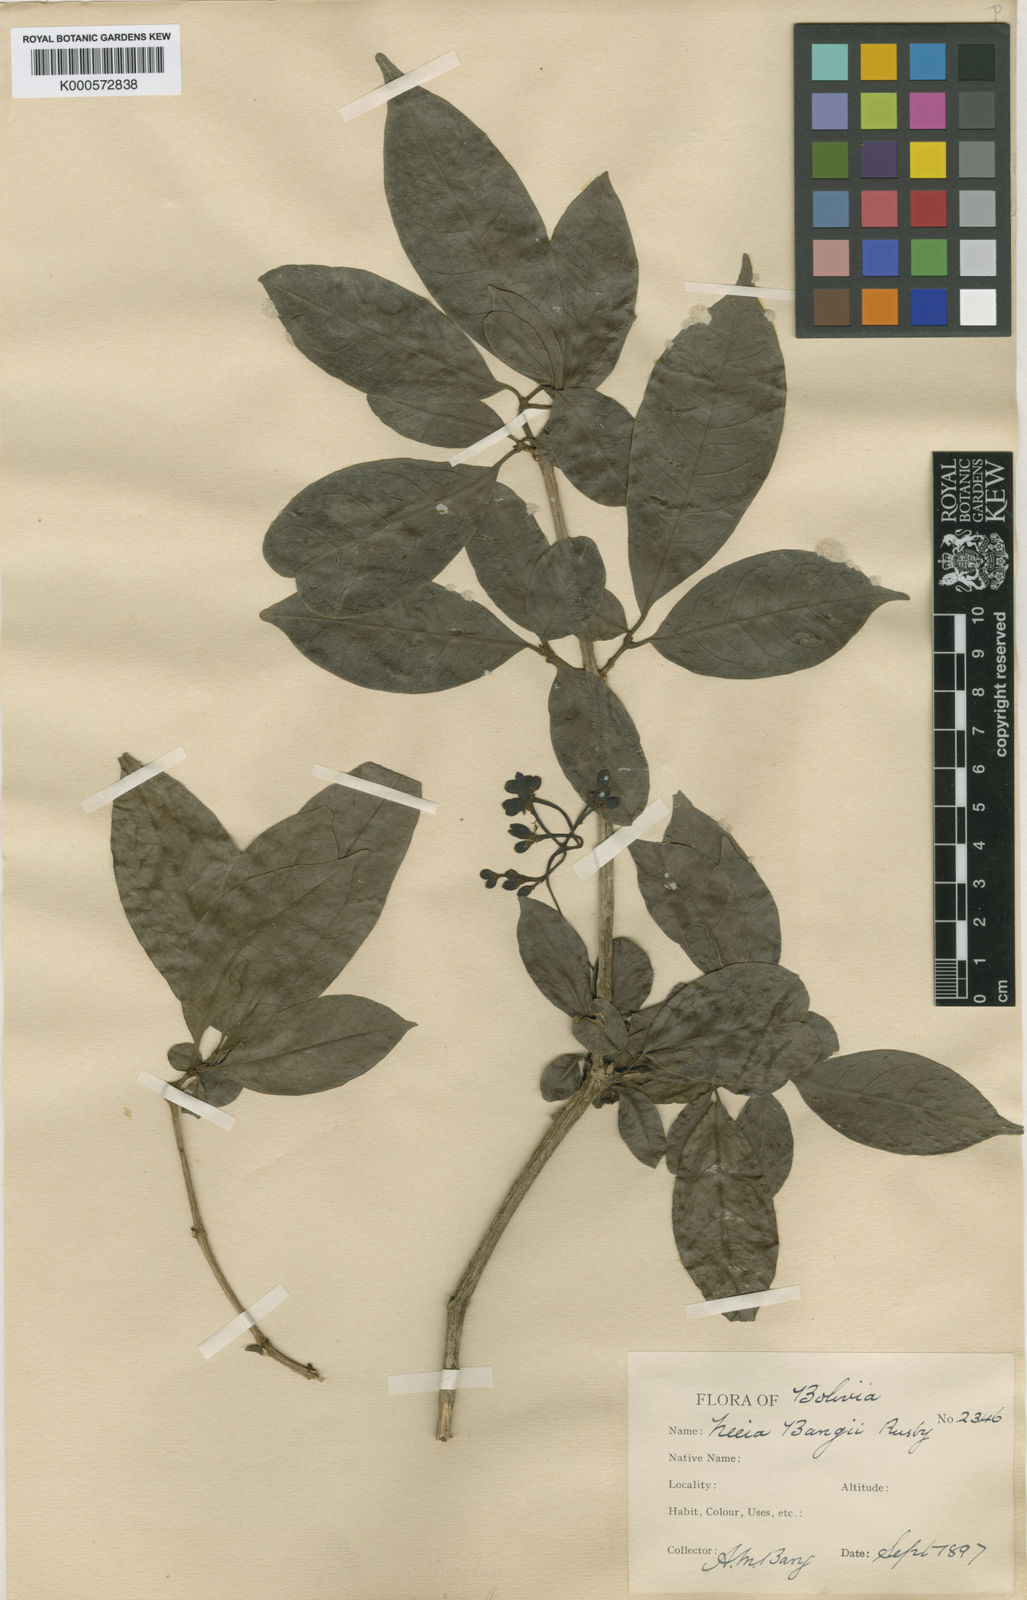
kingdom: Plantae
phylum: Tracheophyta
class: Magnoliopsida
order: Caryophyllales
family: Nyctaginaceae
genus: Neea
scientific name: Neea bangii
